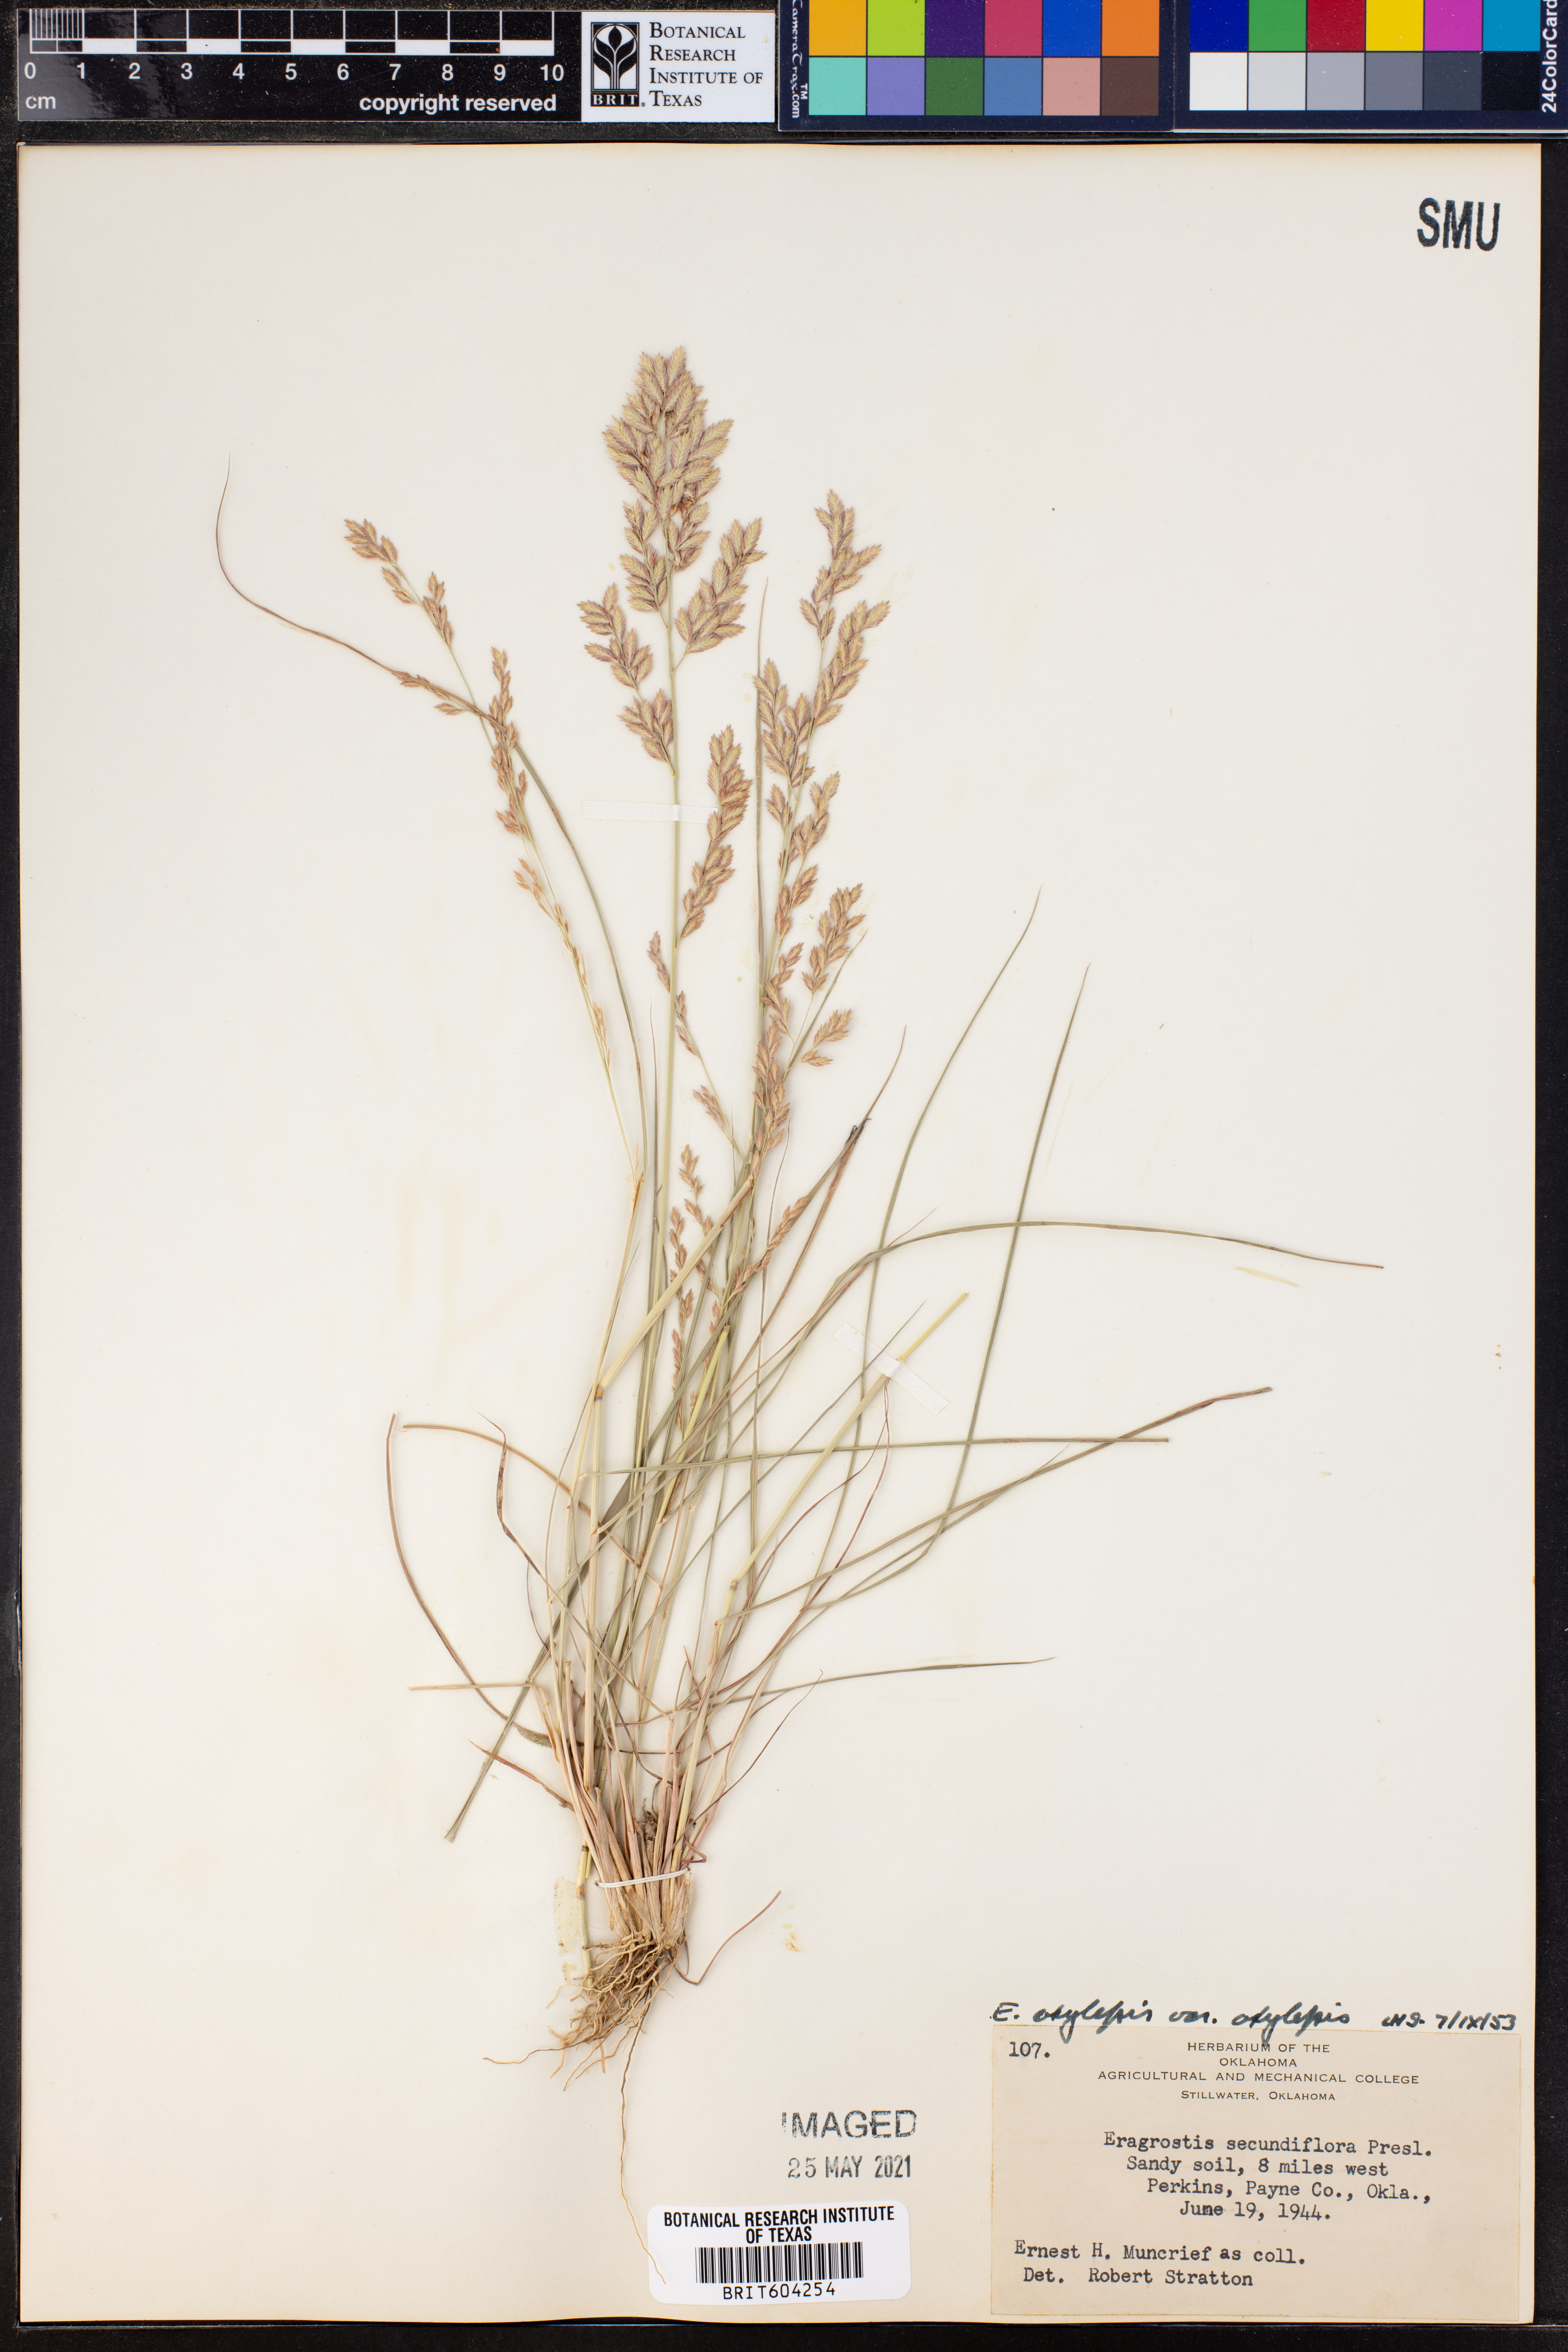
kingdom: Plantae
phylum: Tracheophyta
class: Liliopsida
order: Poales
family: Poaceae
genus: Eragrostis
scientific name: Eragrostis secundiflora
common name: Red love grass
